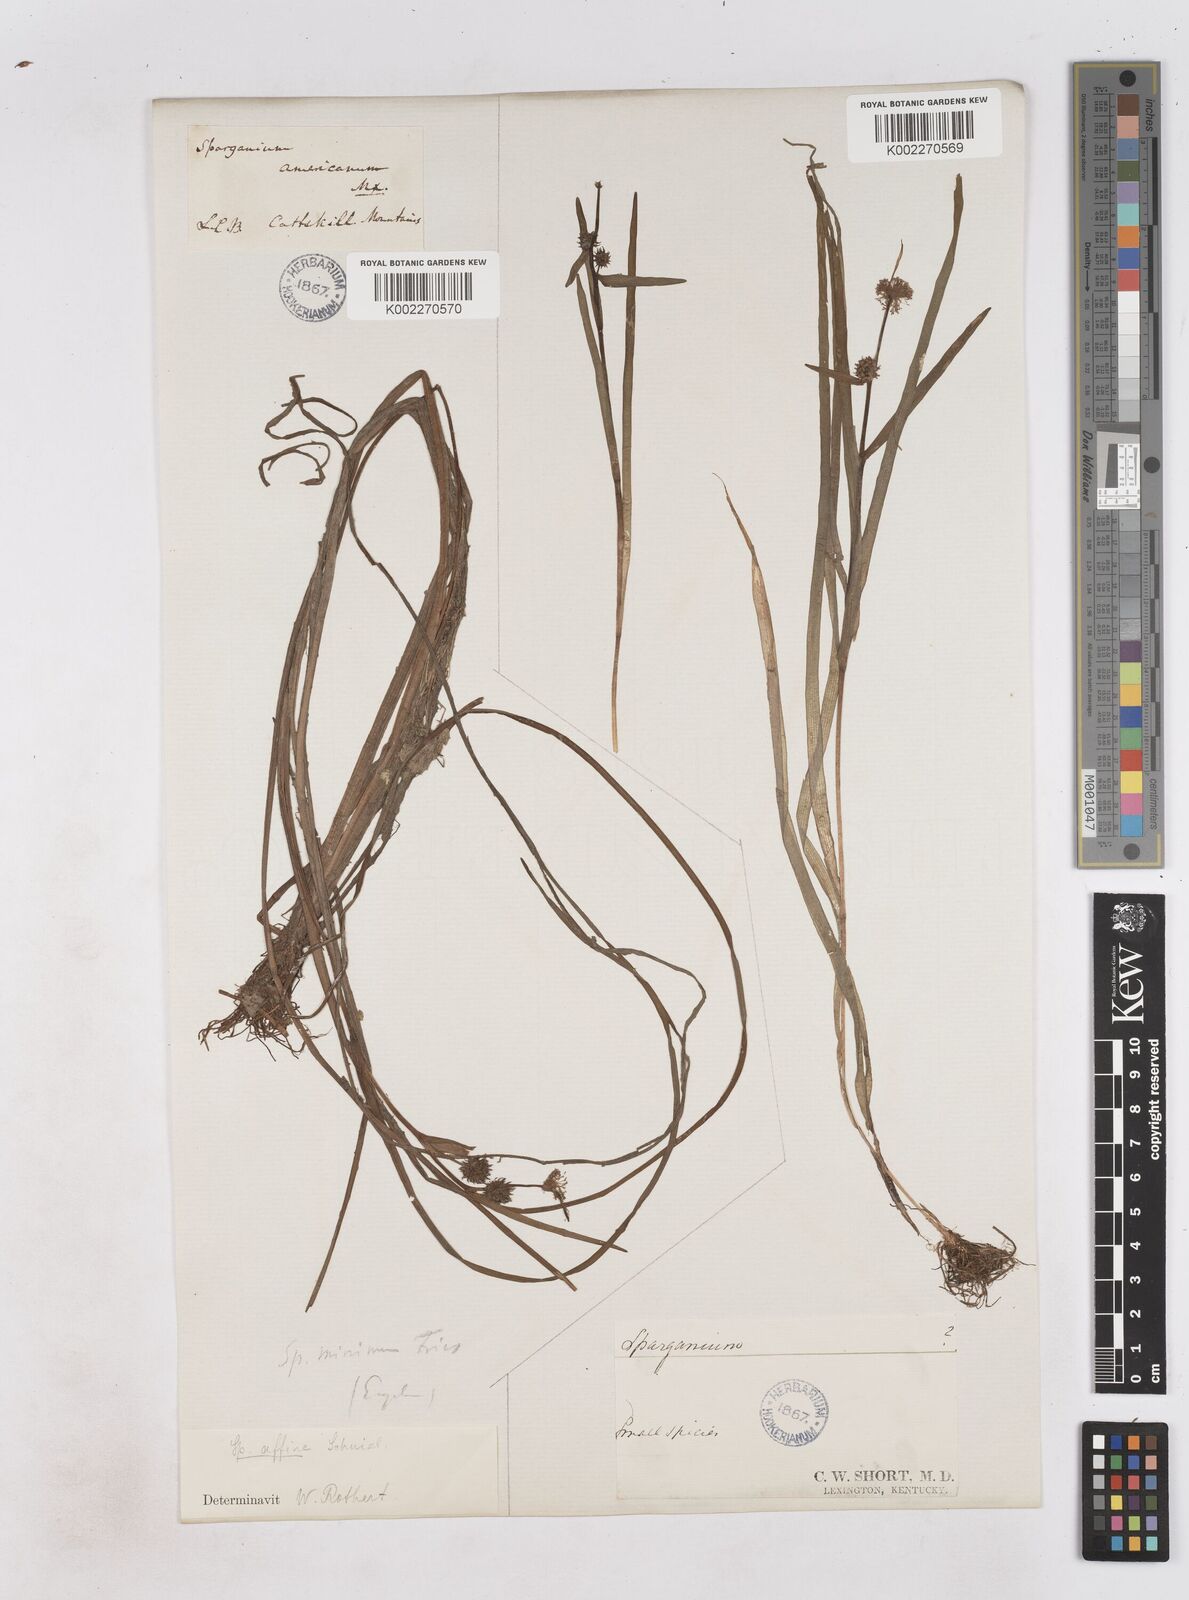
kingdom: Plantae
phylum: Tracheophyta
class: Liliopsida
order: Poales
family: Typhaceae
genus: Sparganium
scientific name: Sparganium angustifolium
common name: Floating bur-reed
